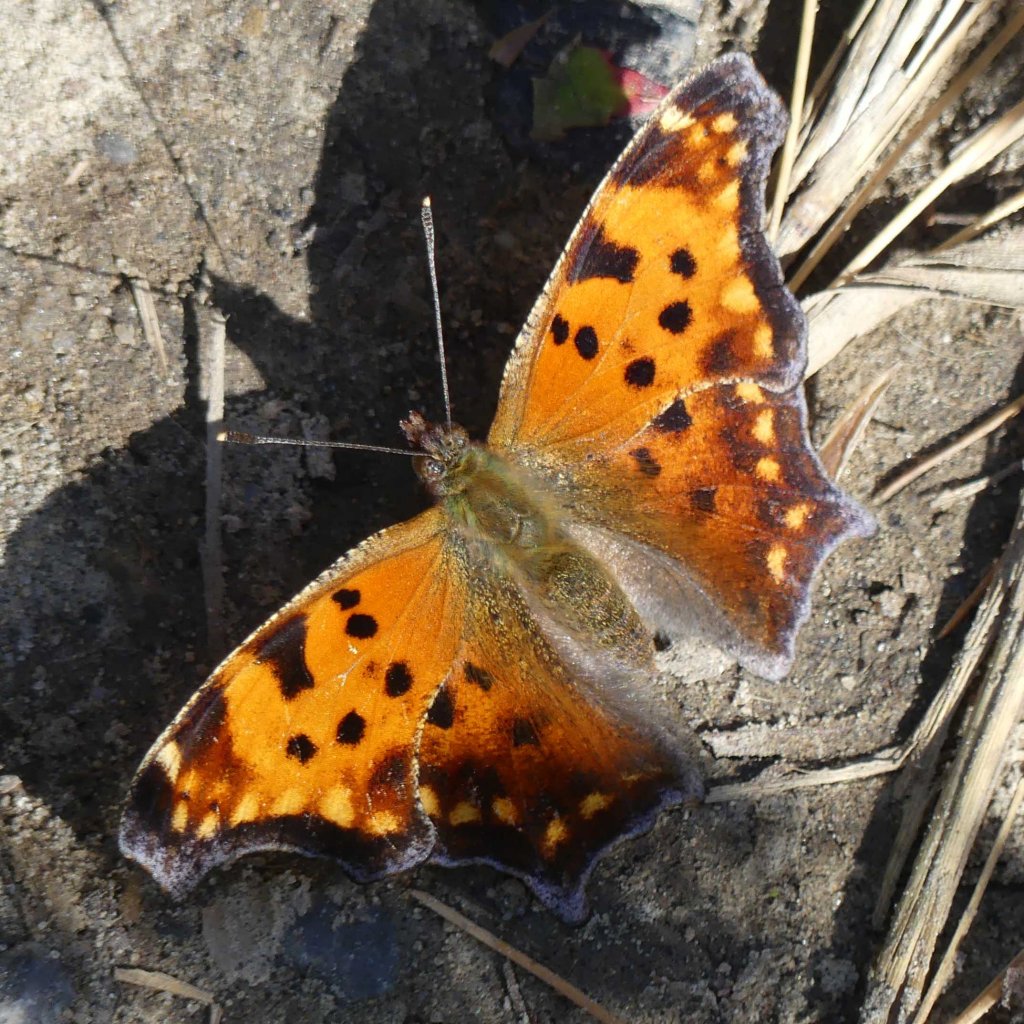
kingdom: Animalia
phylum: Arthropoda
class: Insecta
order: Lepidoptera
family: Nymphalidae
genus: Polygonia
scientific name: Polygonia comma
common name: Eastern Comma
